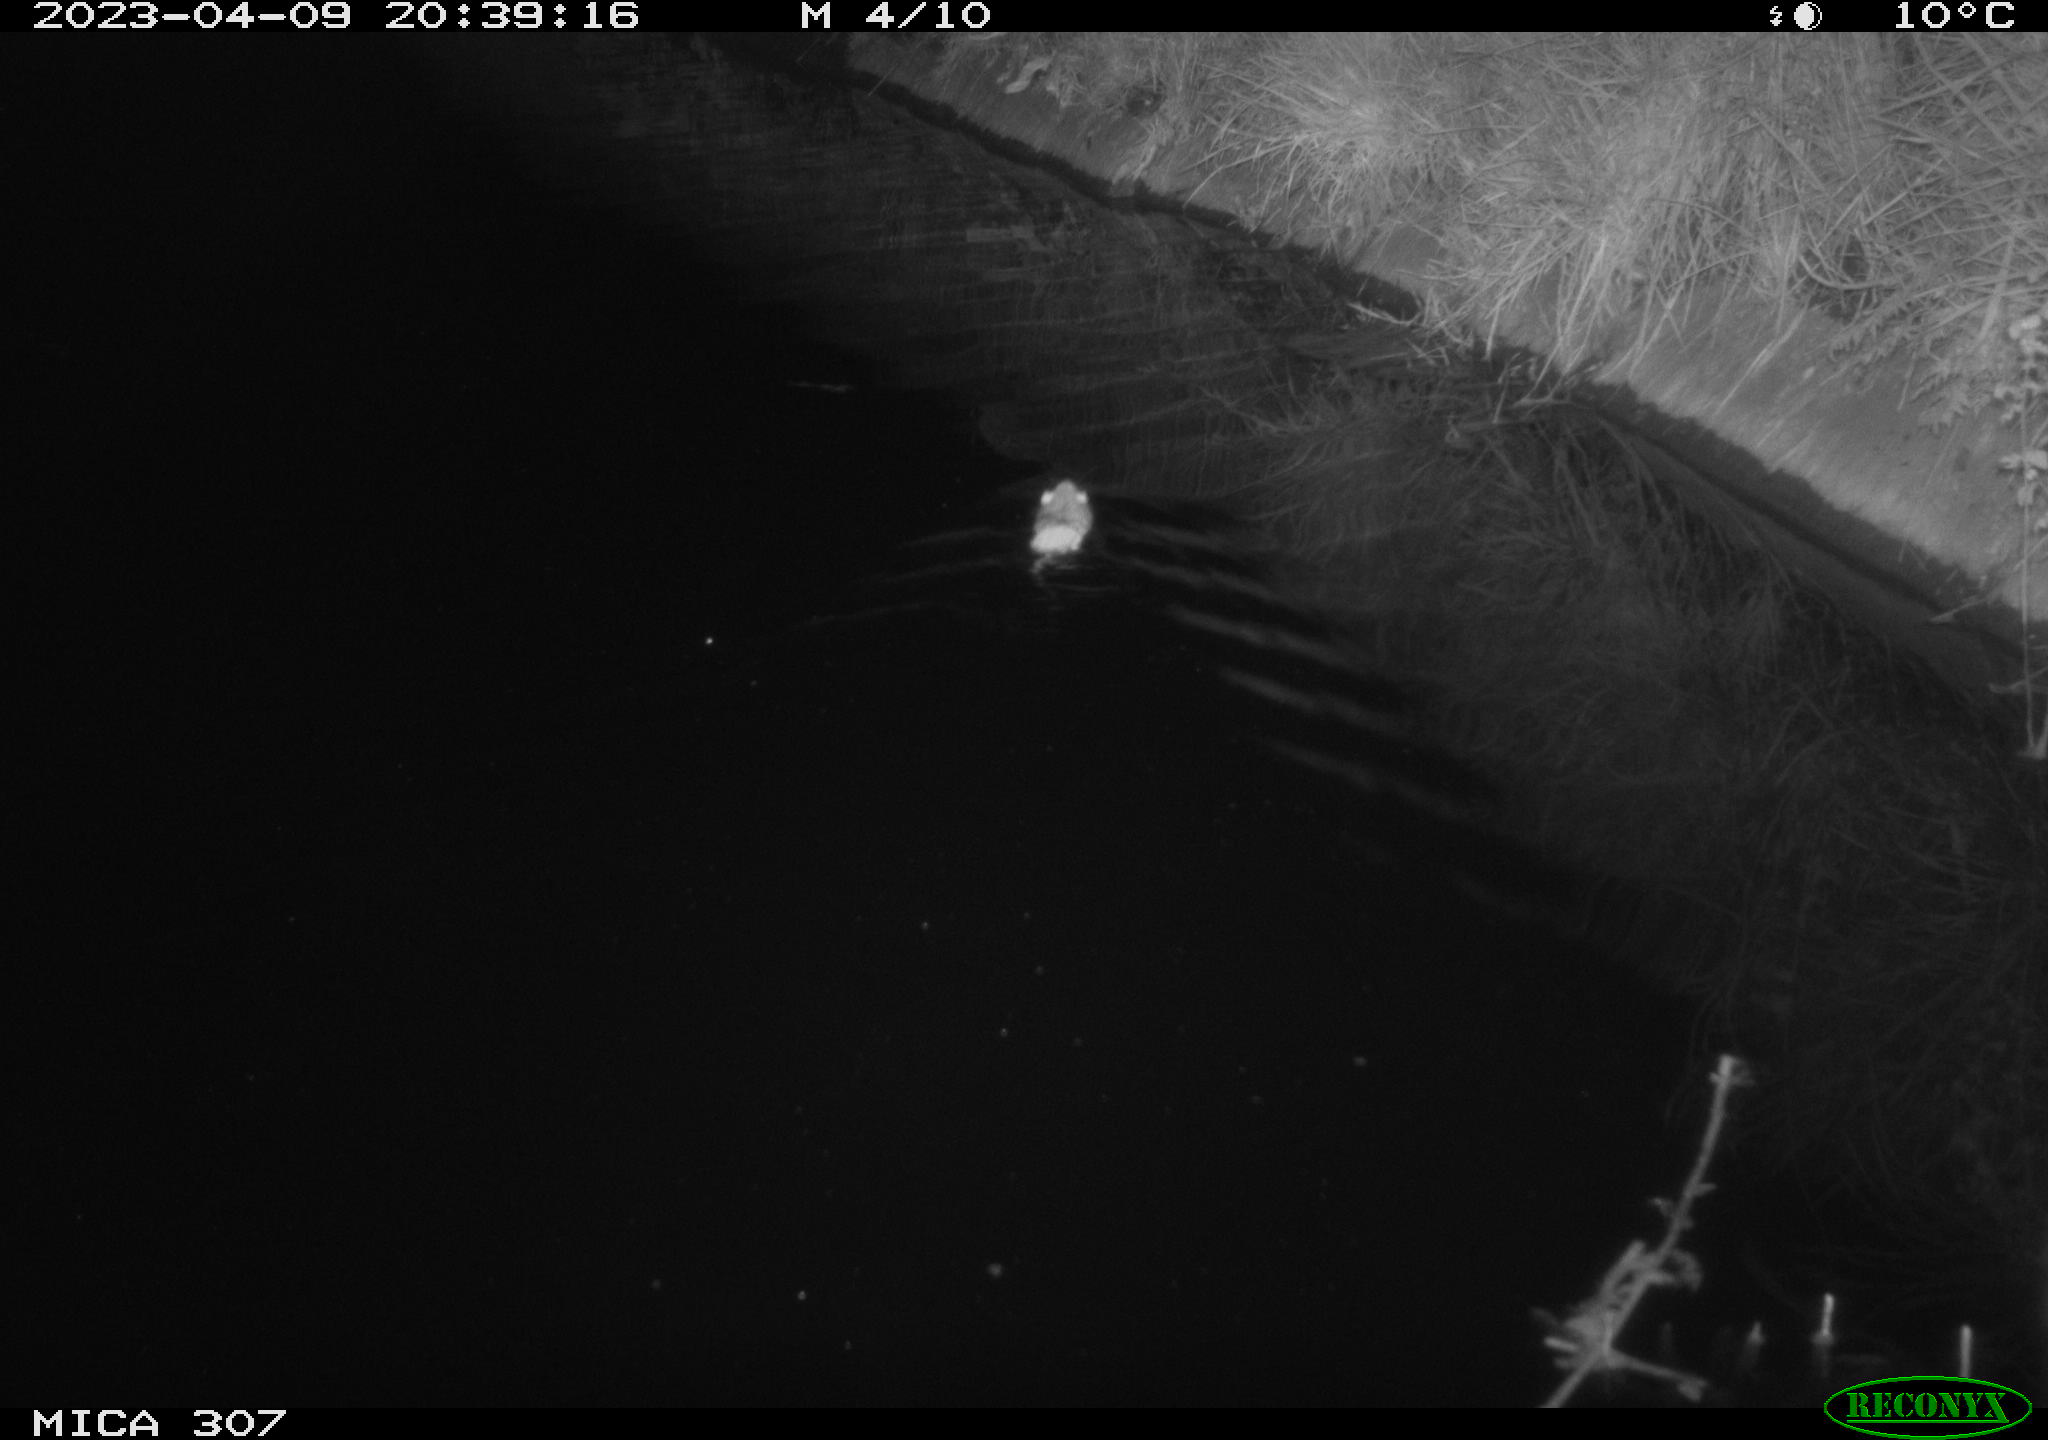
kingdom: Animalia
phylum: Chordata
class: Mammalia
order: Rodentia
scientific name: Rodentia
